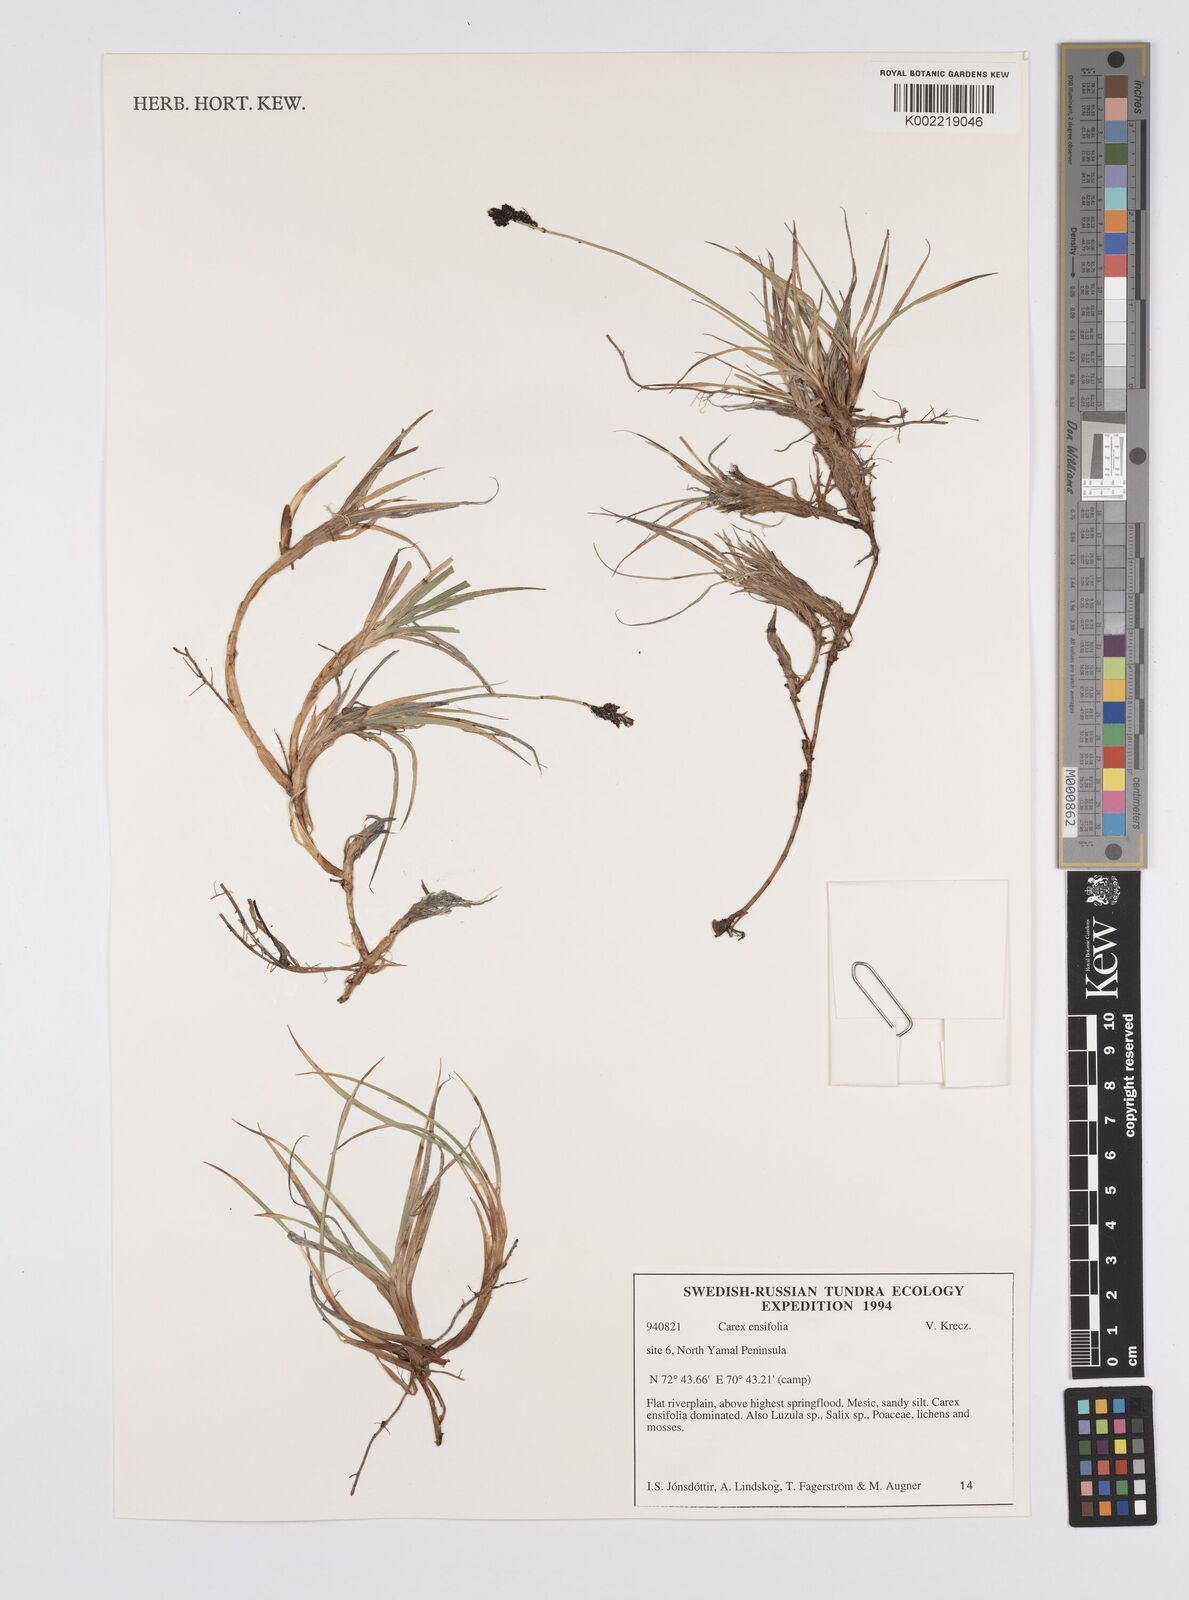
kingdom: Plantae
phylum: Tracheophyta
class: Liliopsida
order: Poales
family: Cyperaceae
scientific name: Cyperaceae
